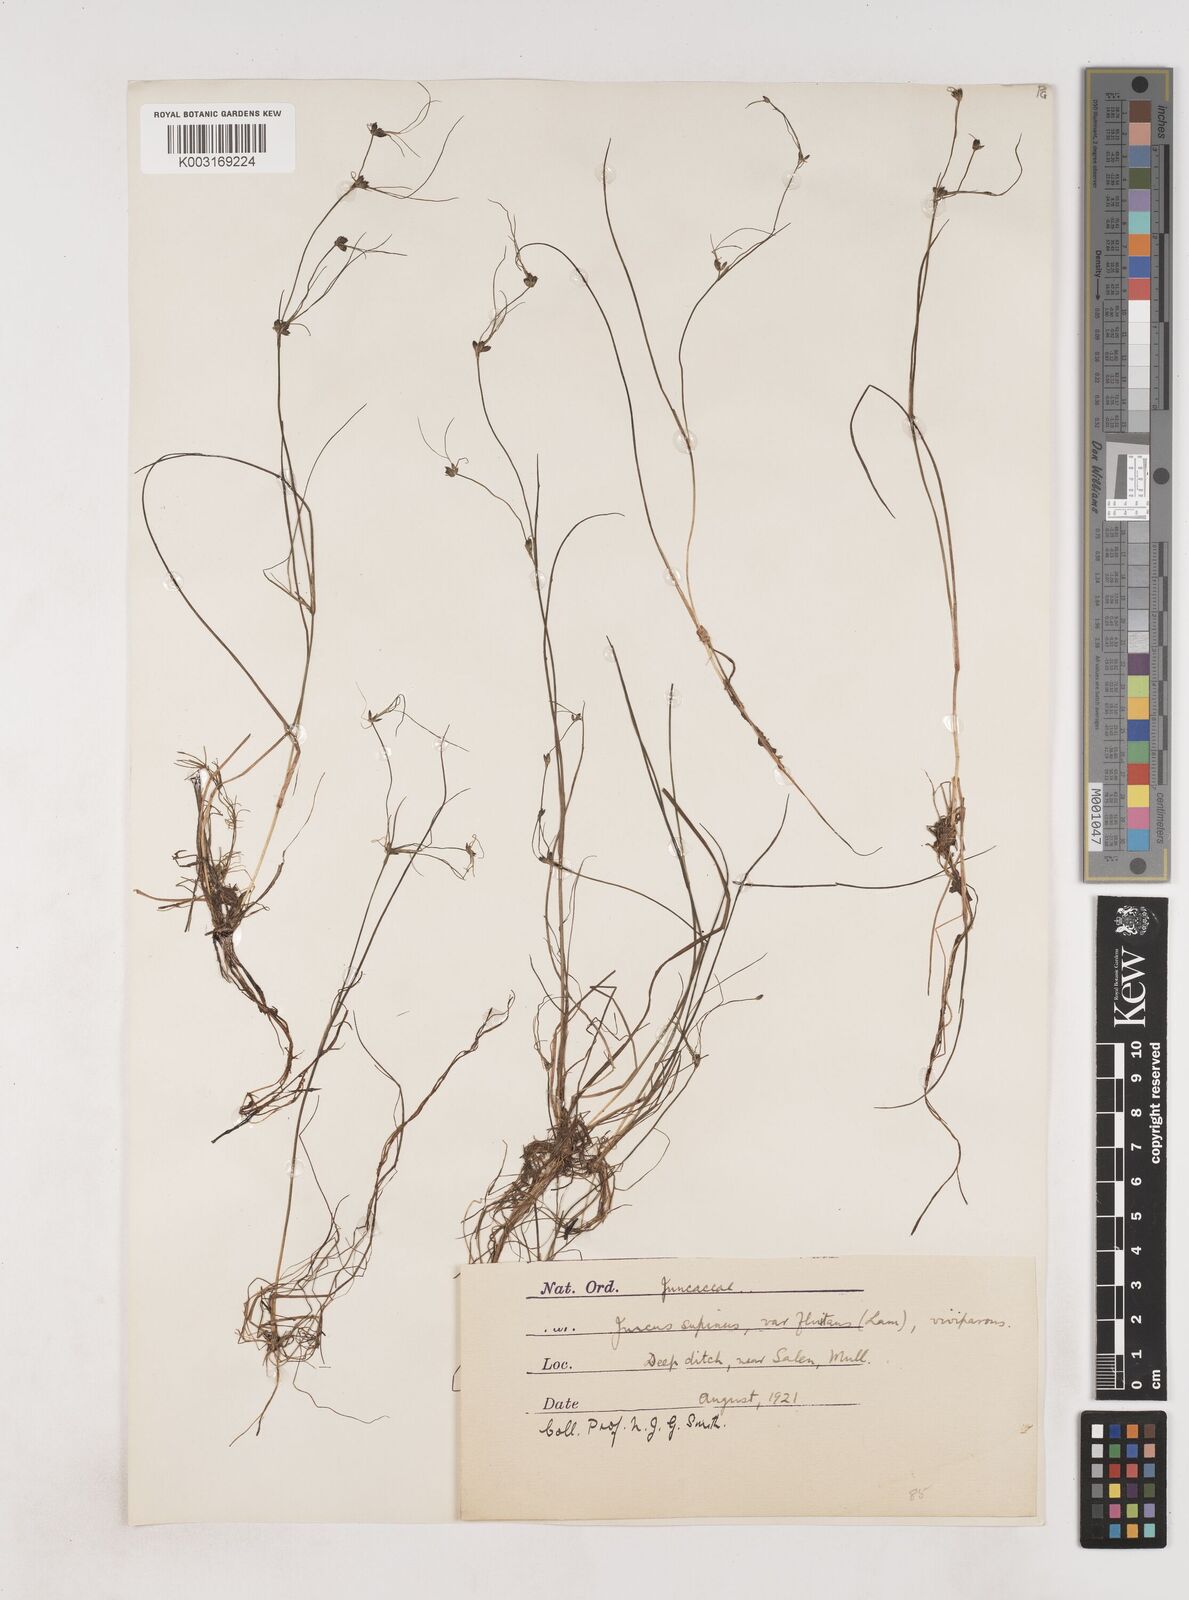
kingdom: Plantae
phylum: Tracheophyta
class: Liliopsida
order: Poales
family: Juncaceae
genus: Juncus
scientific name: Juncus bulbosus
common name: Bulbous rush
